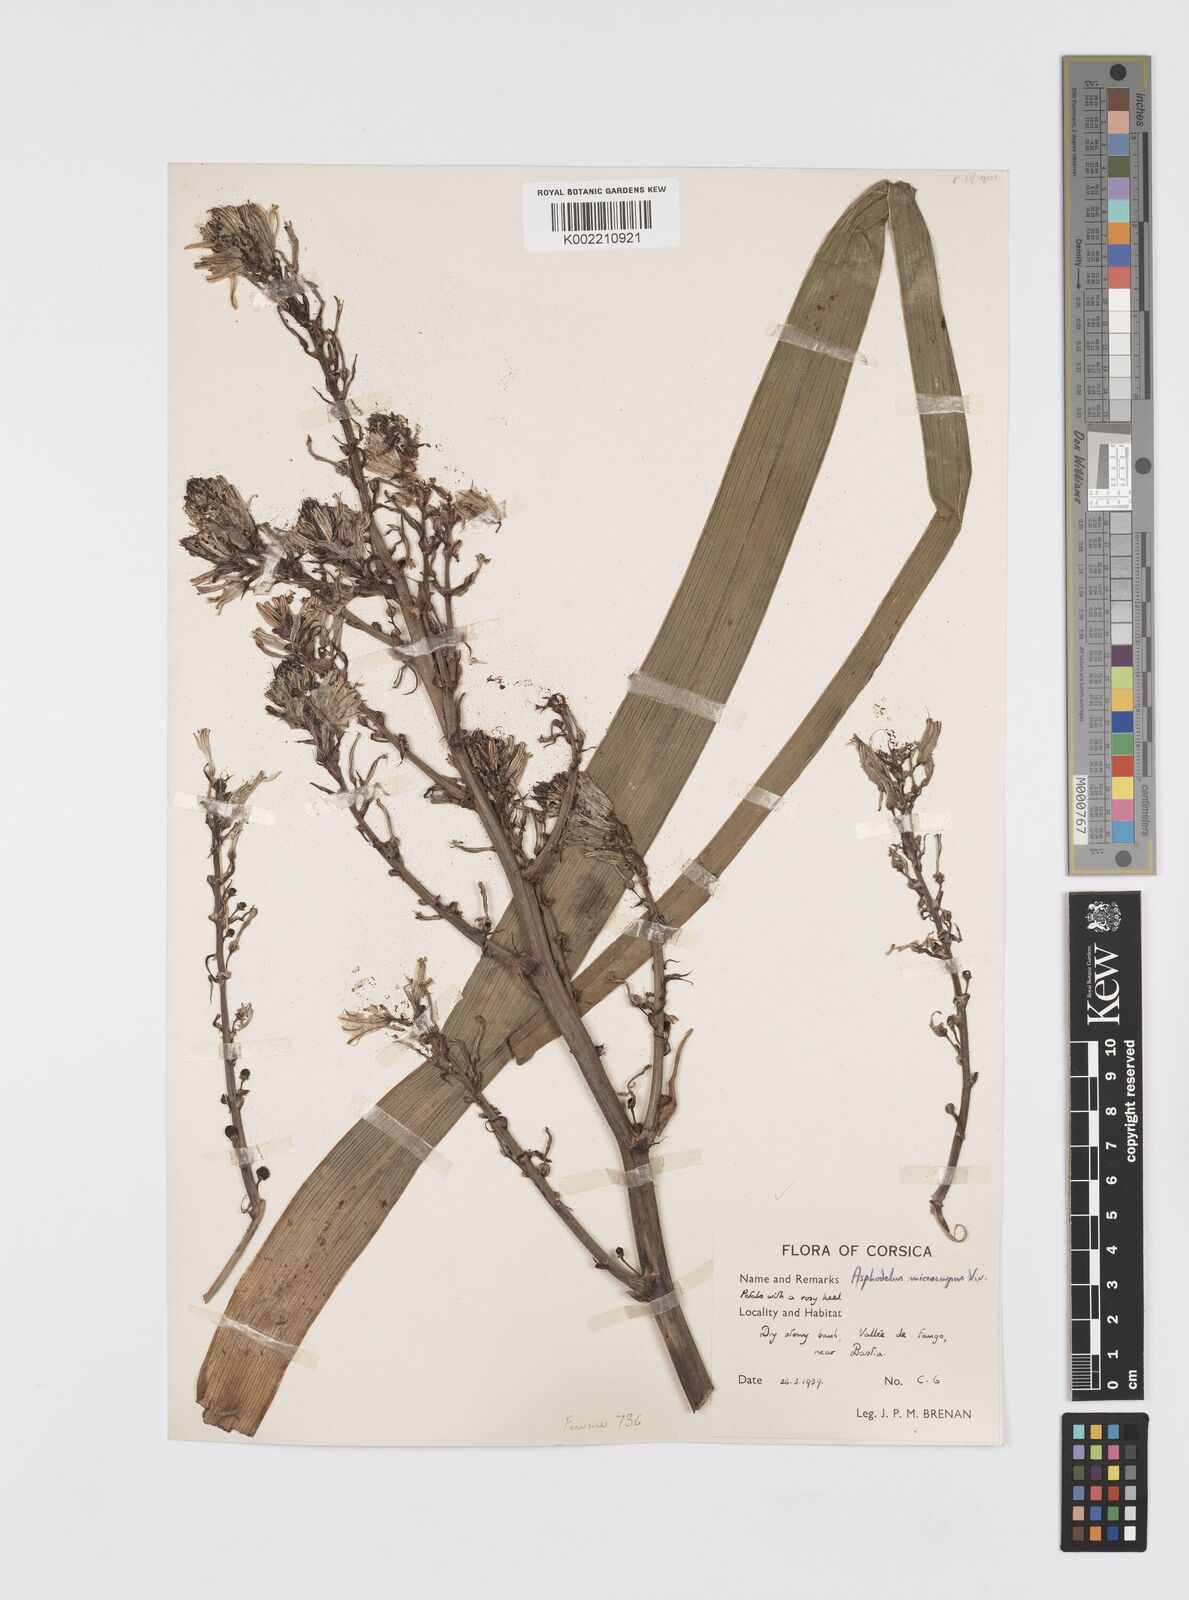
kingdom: Plantae
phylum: Tracheophyta
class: Liliopsida
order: Asparagales
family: Asphodelaceae
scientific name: Asphodelaceae
